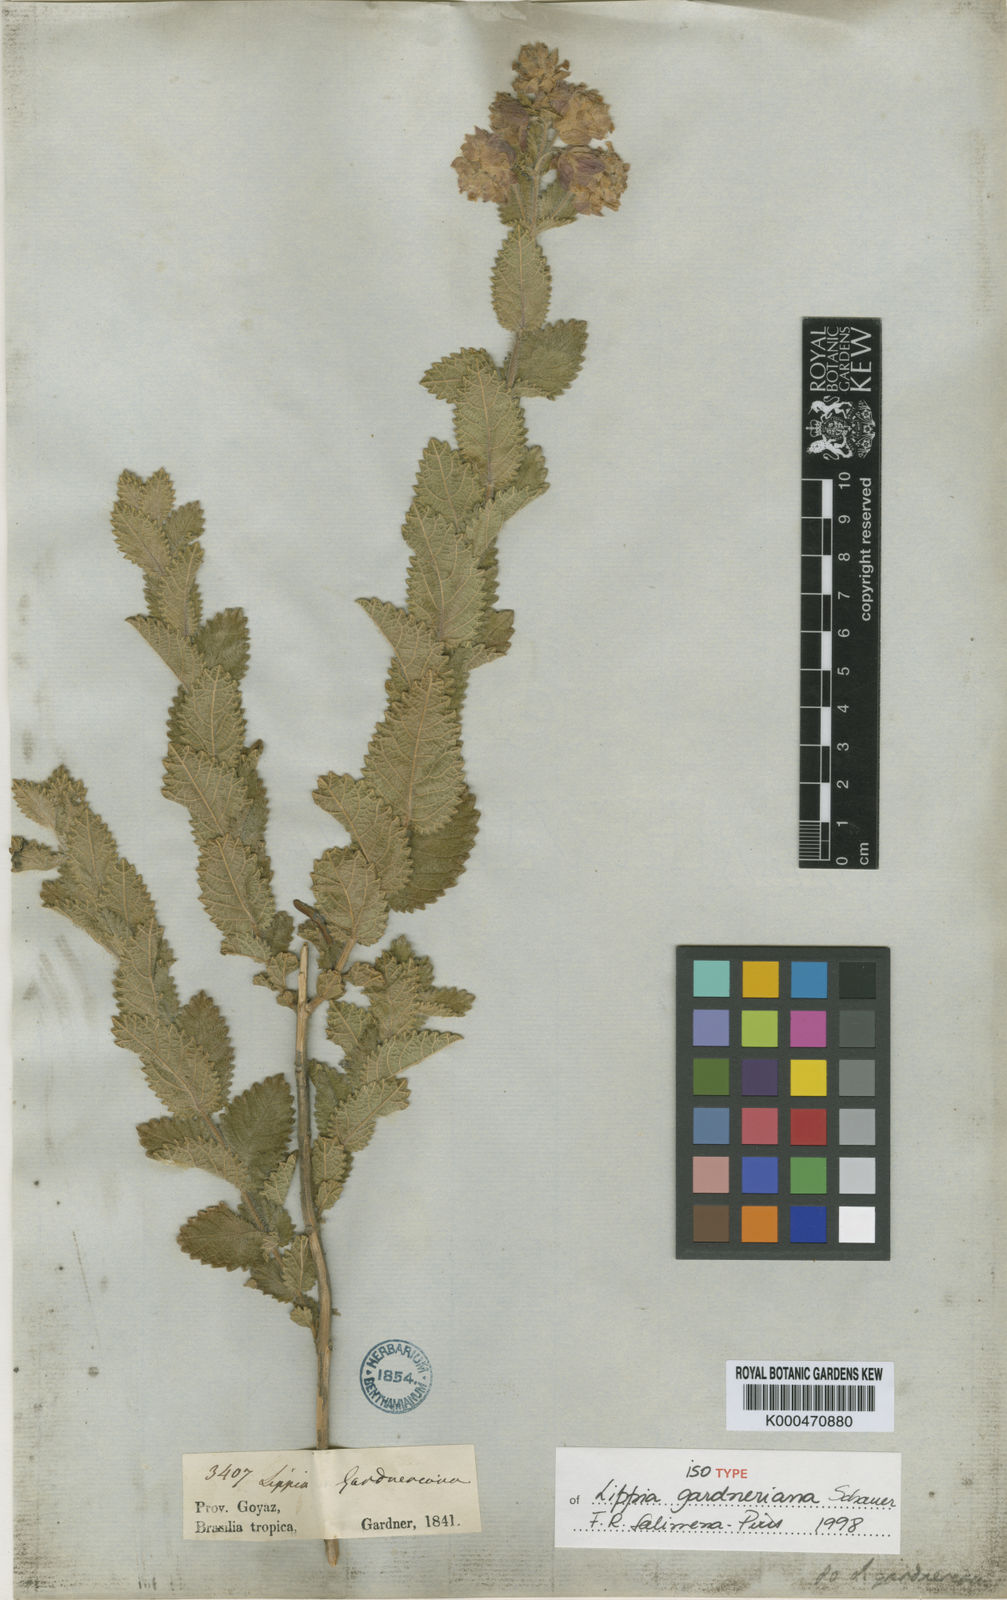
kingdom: Plantae
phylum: Tracheophyta
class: Magnoliopsida
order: Lamiales
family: Verbenaceae
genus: Lippia
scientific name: Lippia gardneriana
